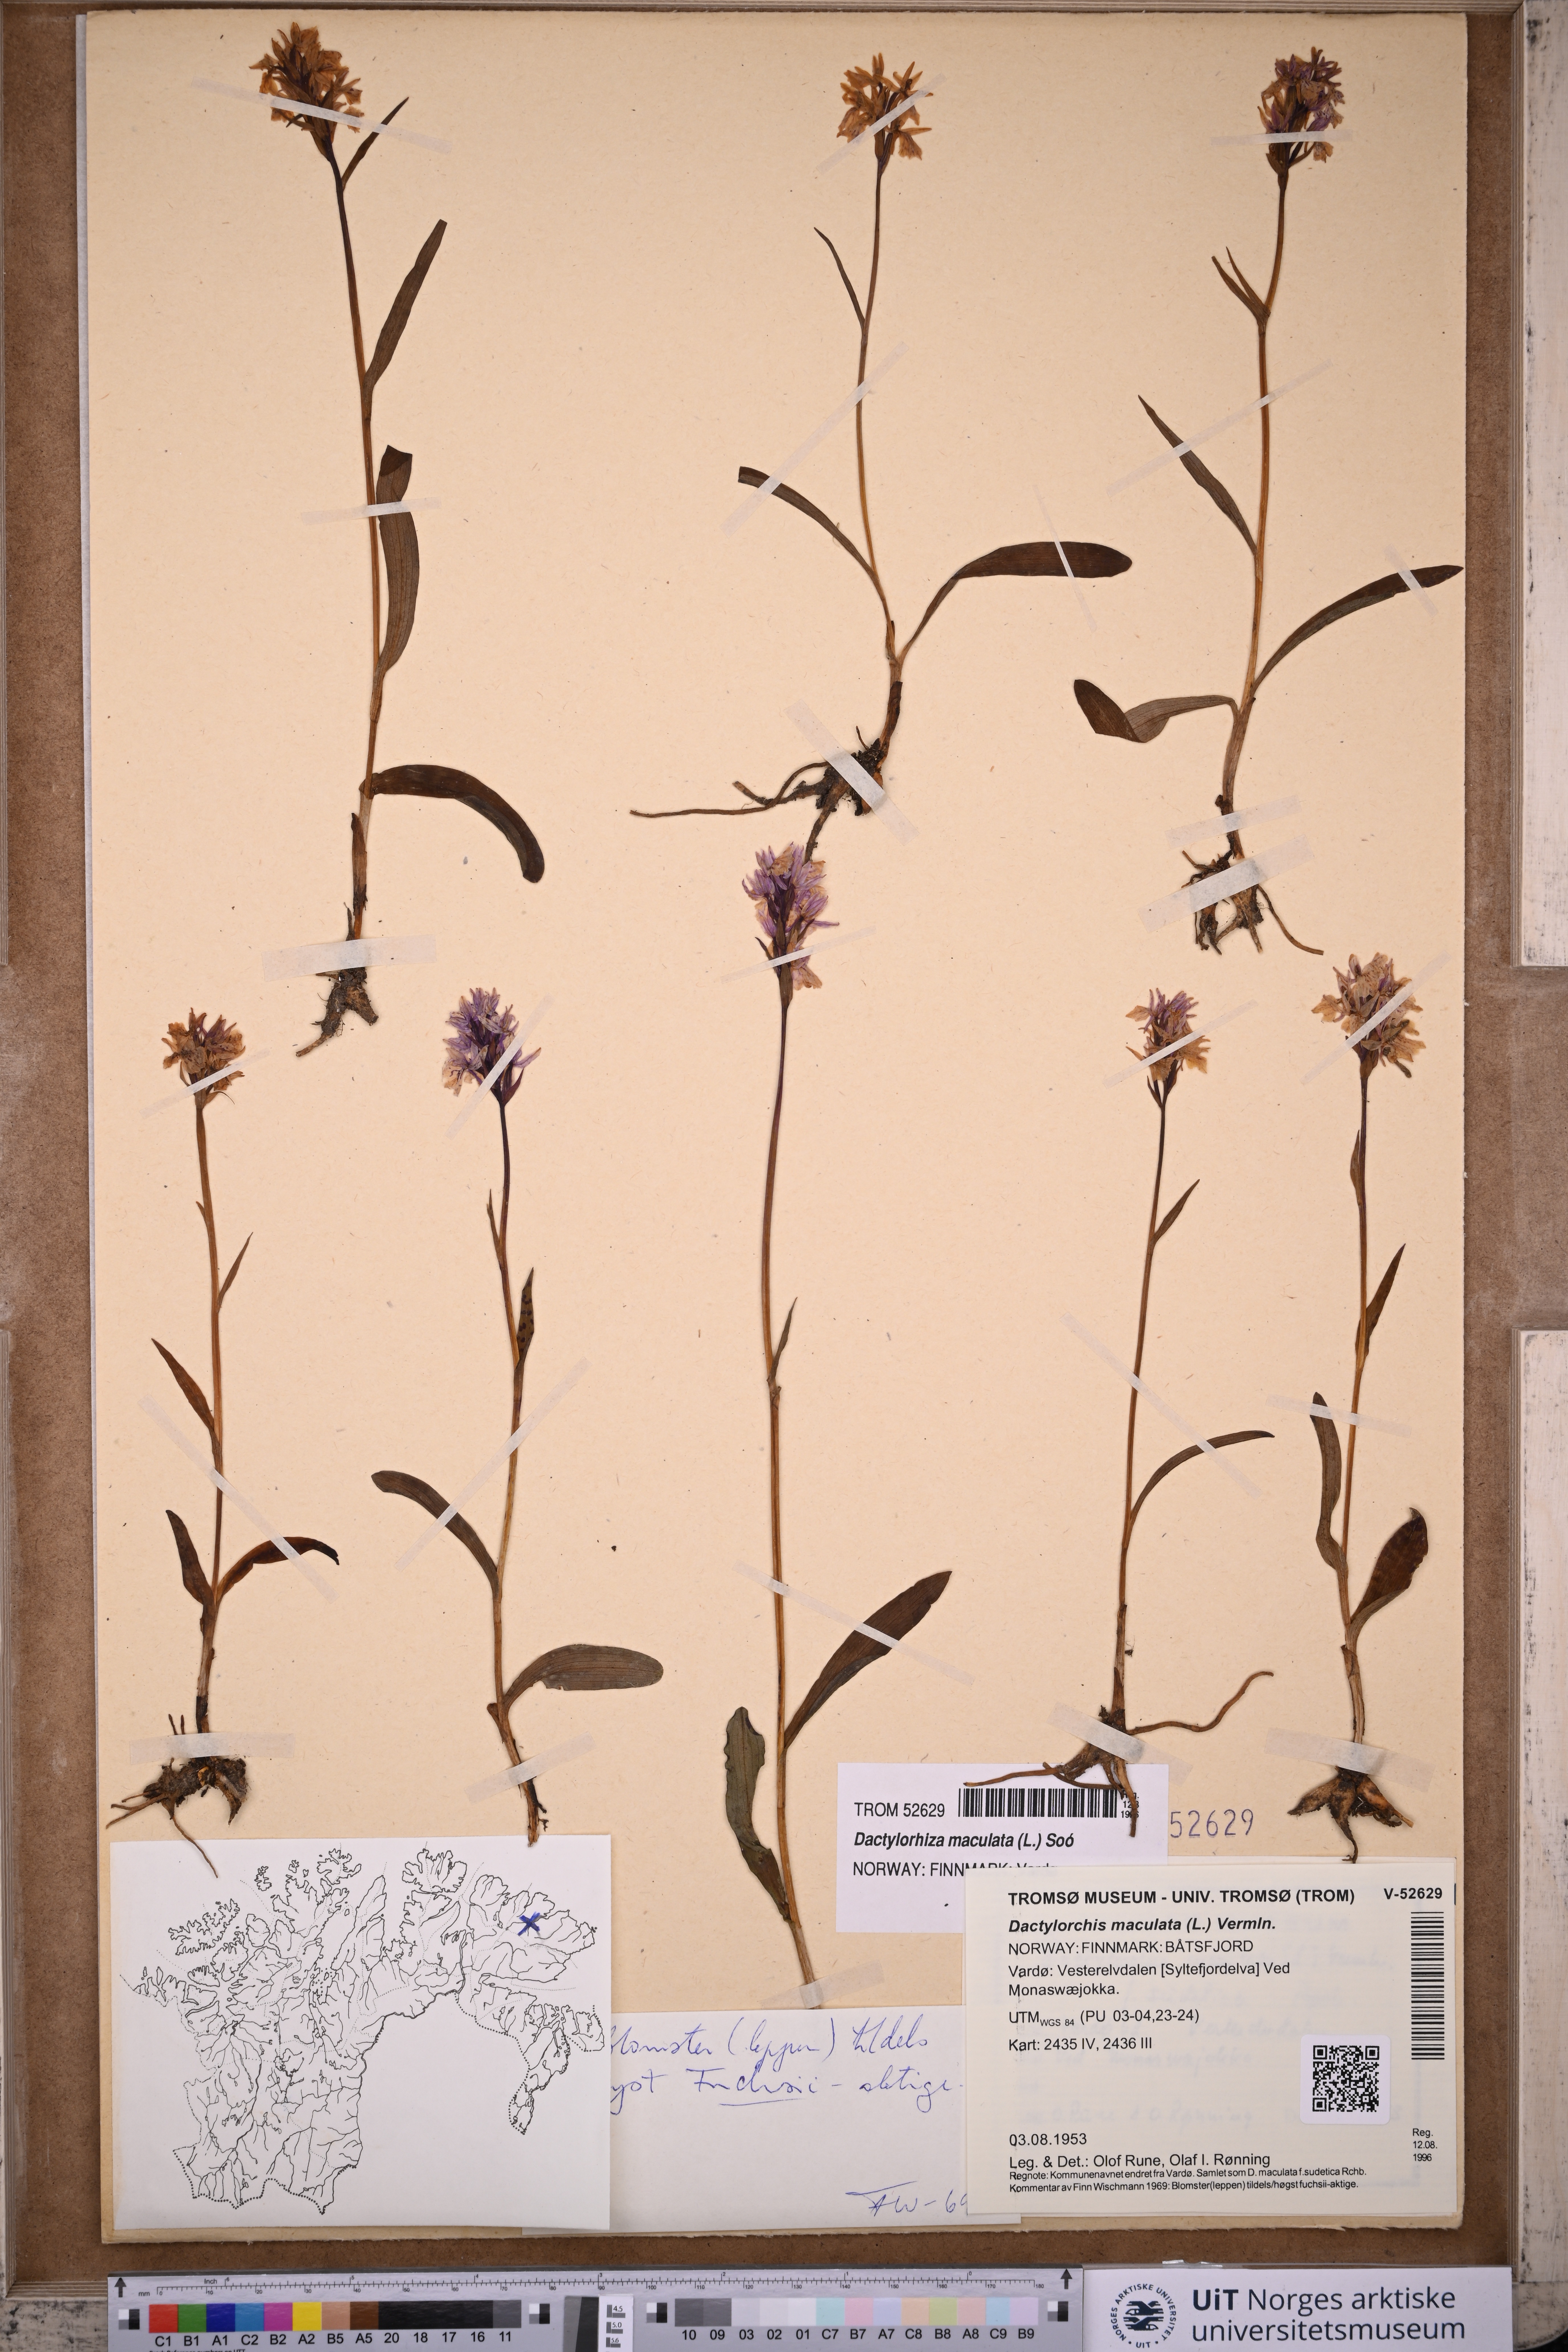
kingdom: Plantae
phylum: Tracheophyta
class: Liliopsida
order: Asparagales
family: Orchidaceae
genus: Dactylorhiza
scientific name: Dactylorhiza maculata
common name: Heath spotted-orchid
